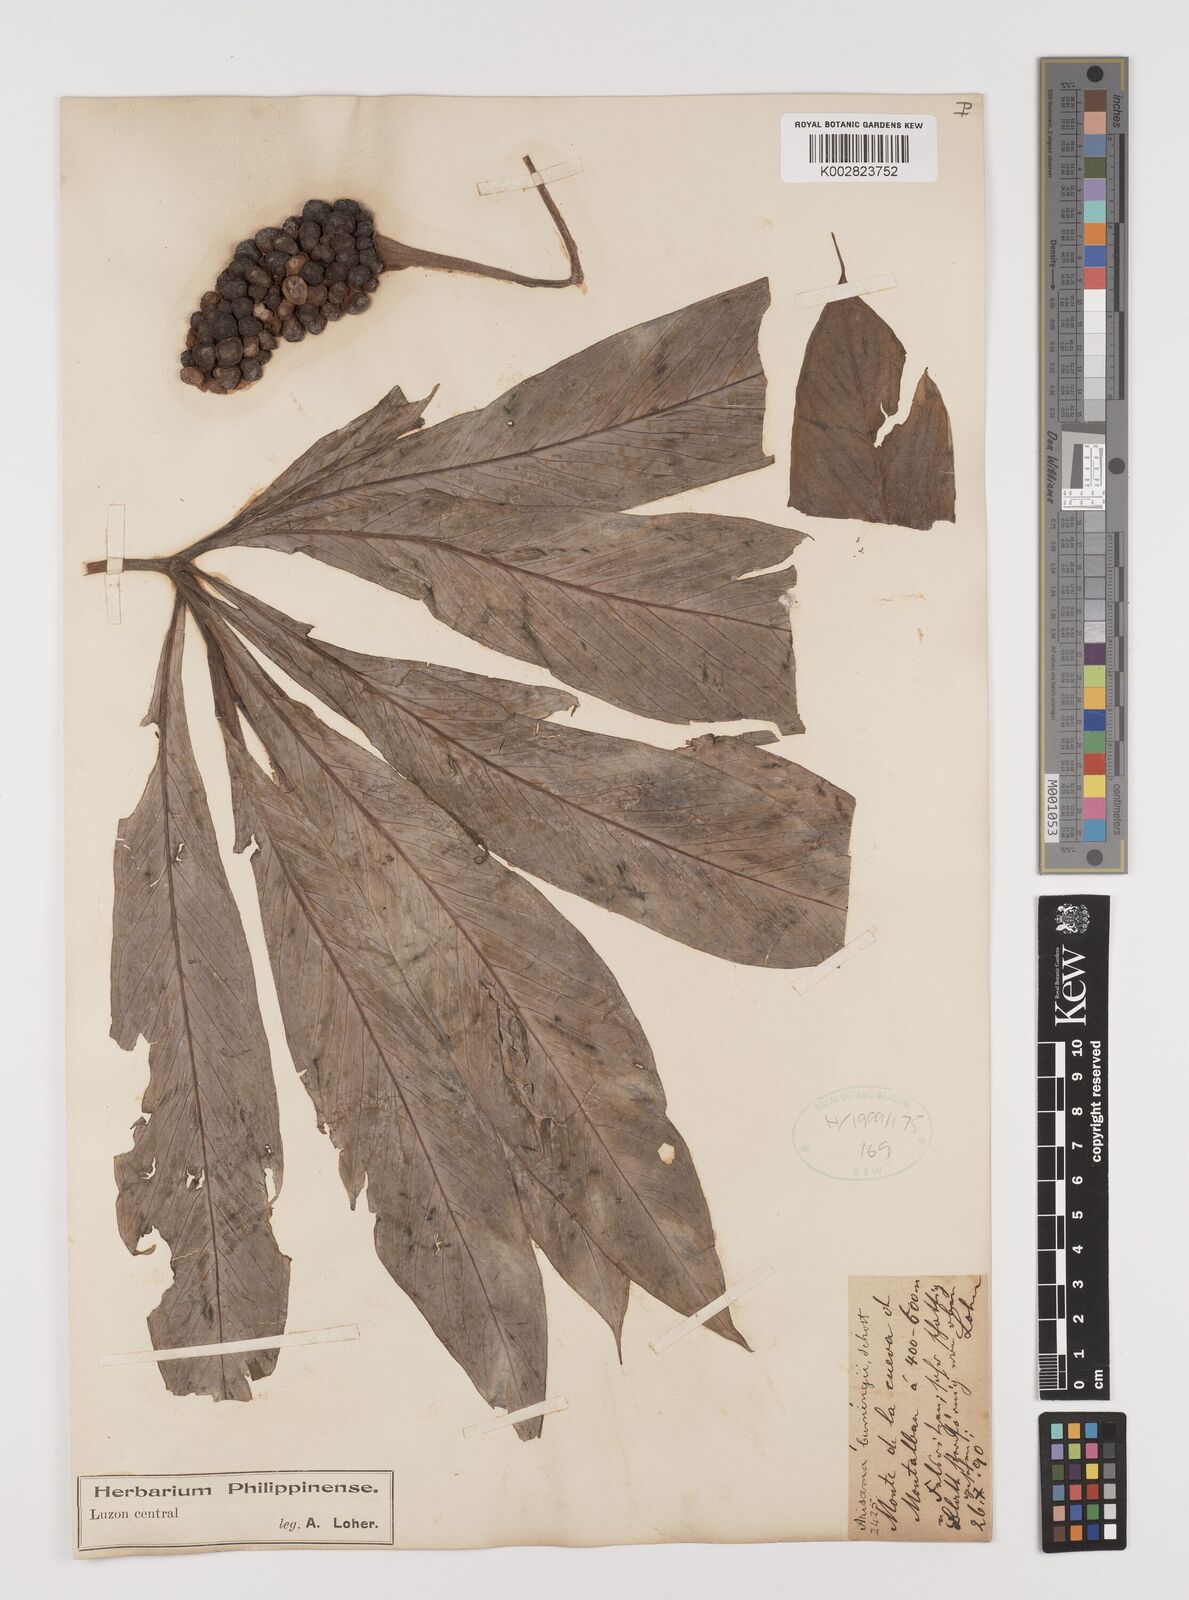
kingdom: Plantae
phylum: Tracheophyta
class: Liliopsida
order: Alismatales
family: Araceae
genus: Arisaema
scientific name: Arisaema polyphyllum
